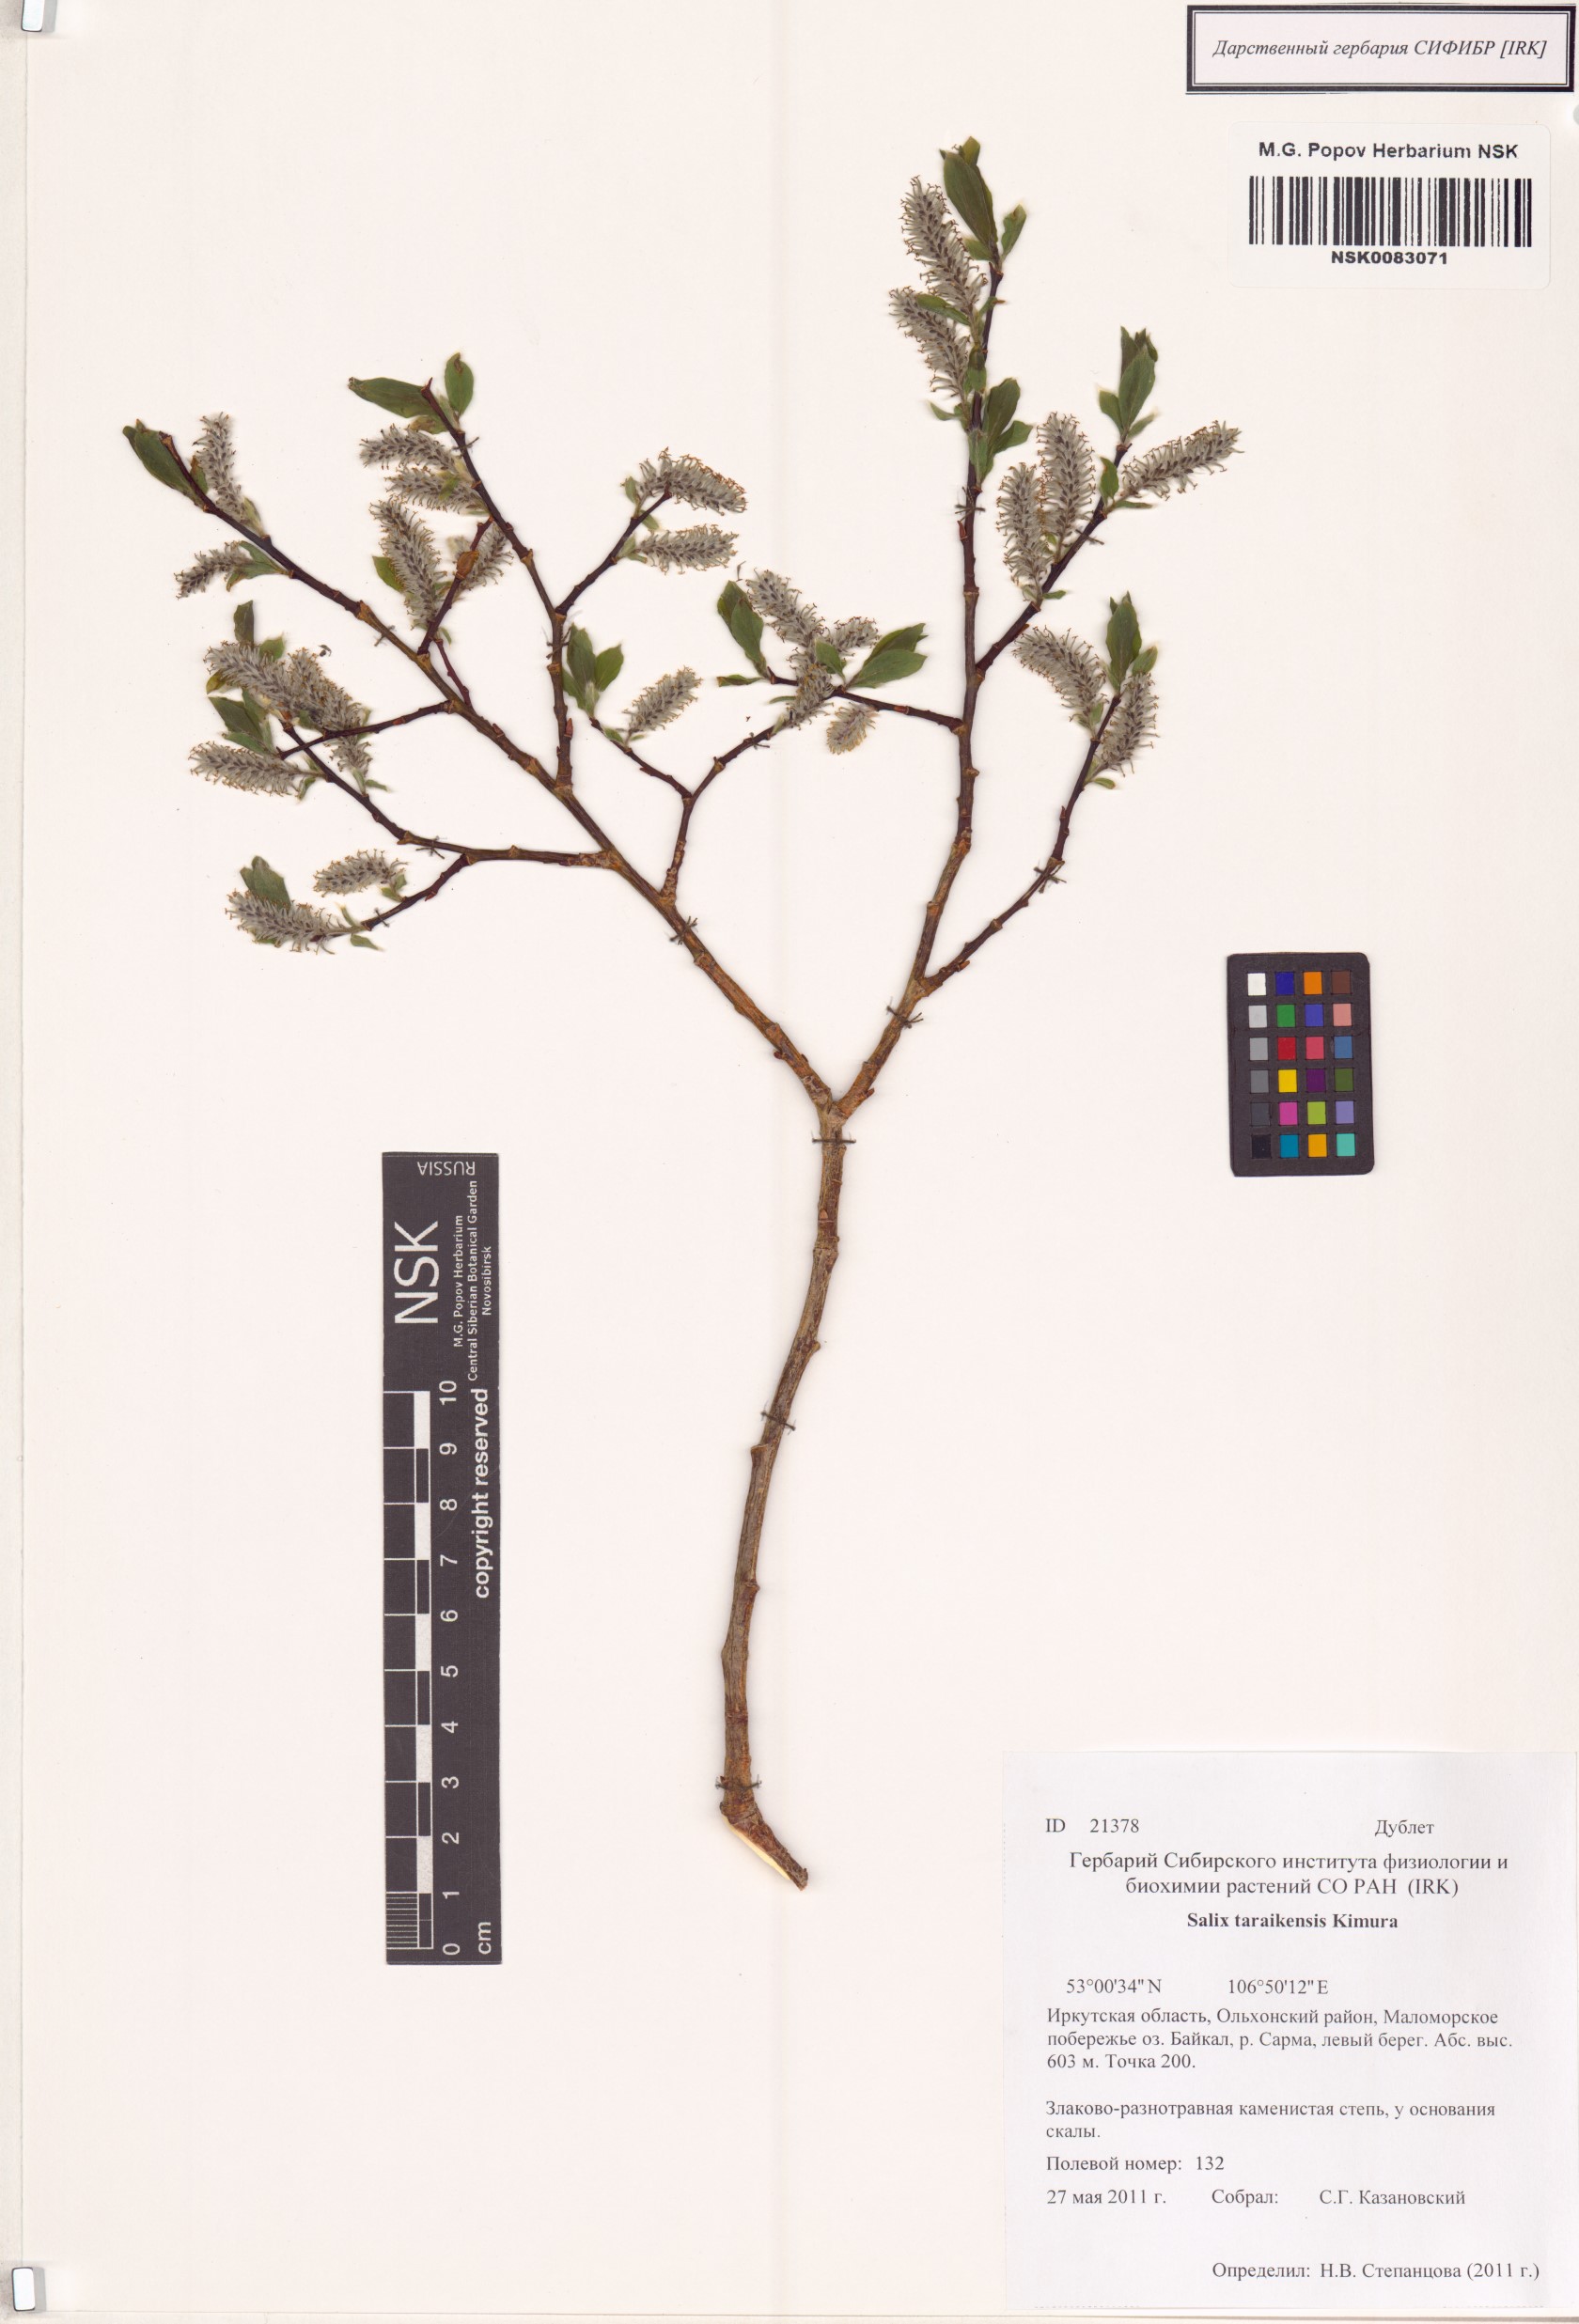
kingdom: Plantae
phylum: Tracheophyta
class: Magnoliopsida
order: Malpighiales
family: Salicaceae
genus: Salix
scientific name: Salix taraikensis
